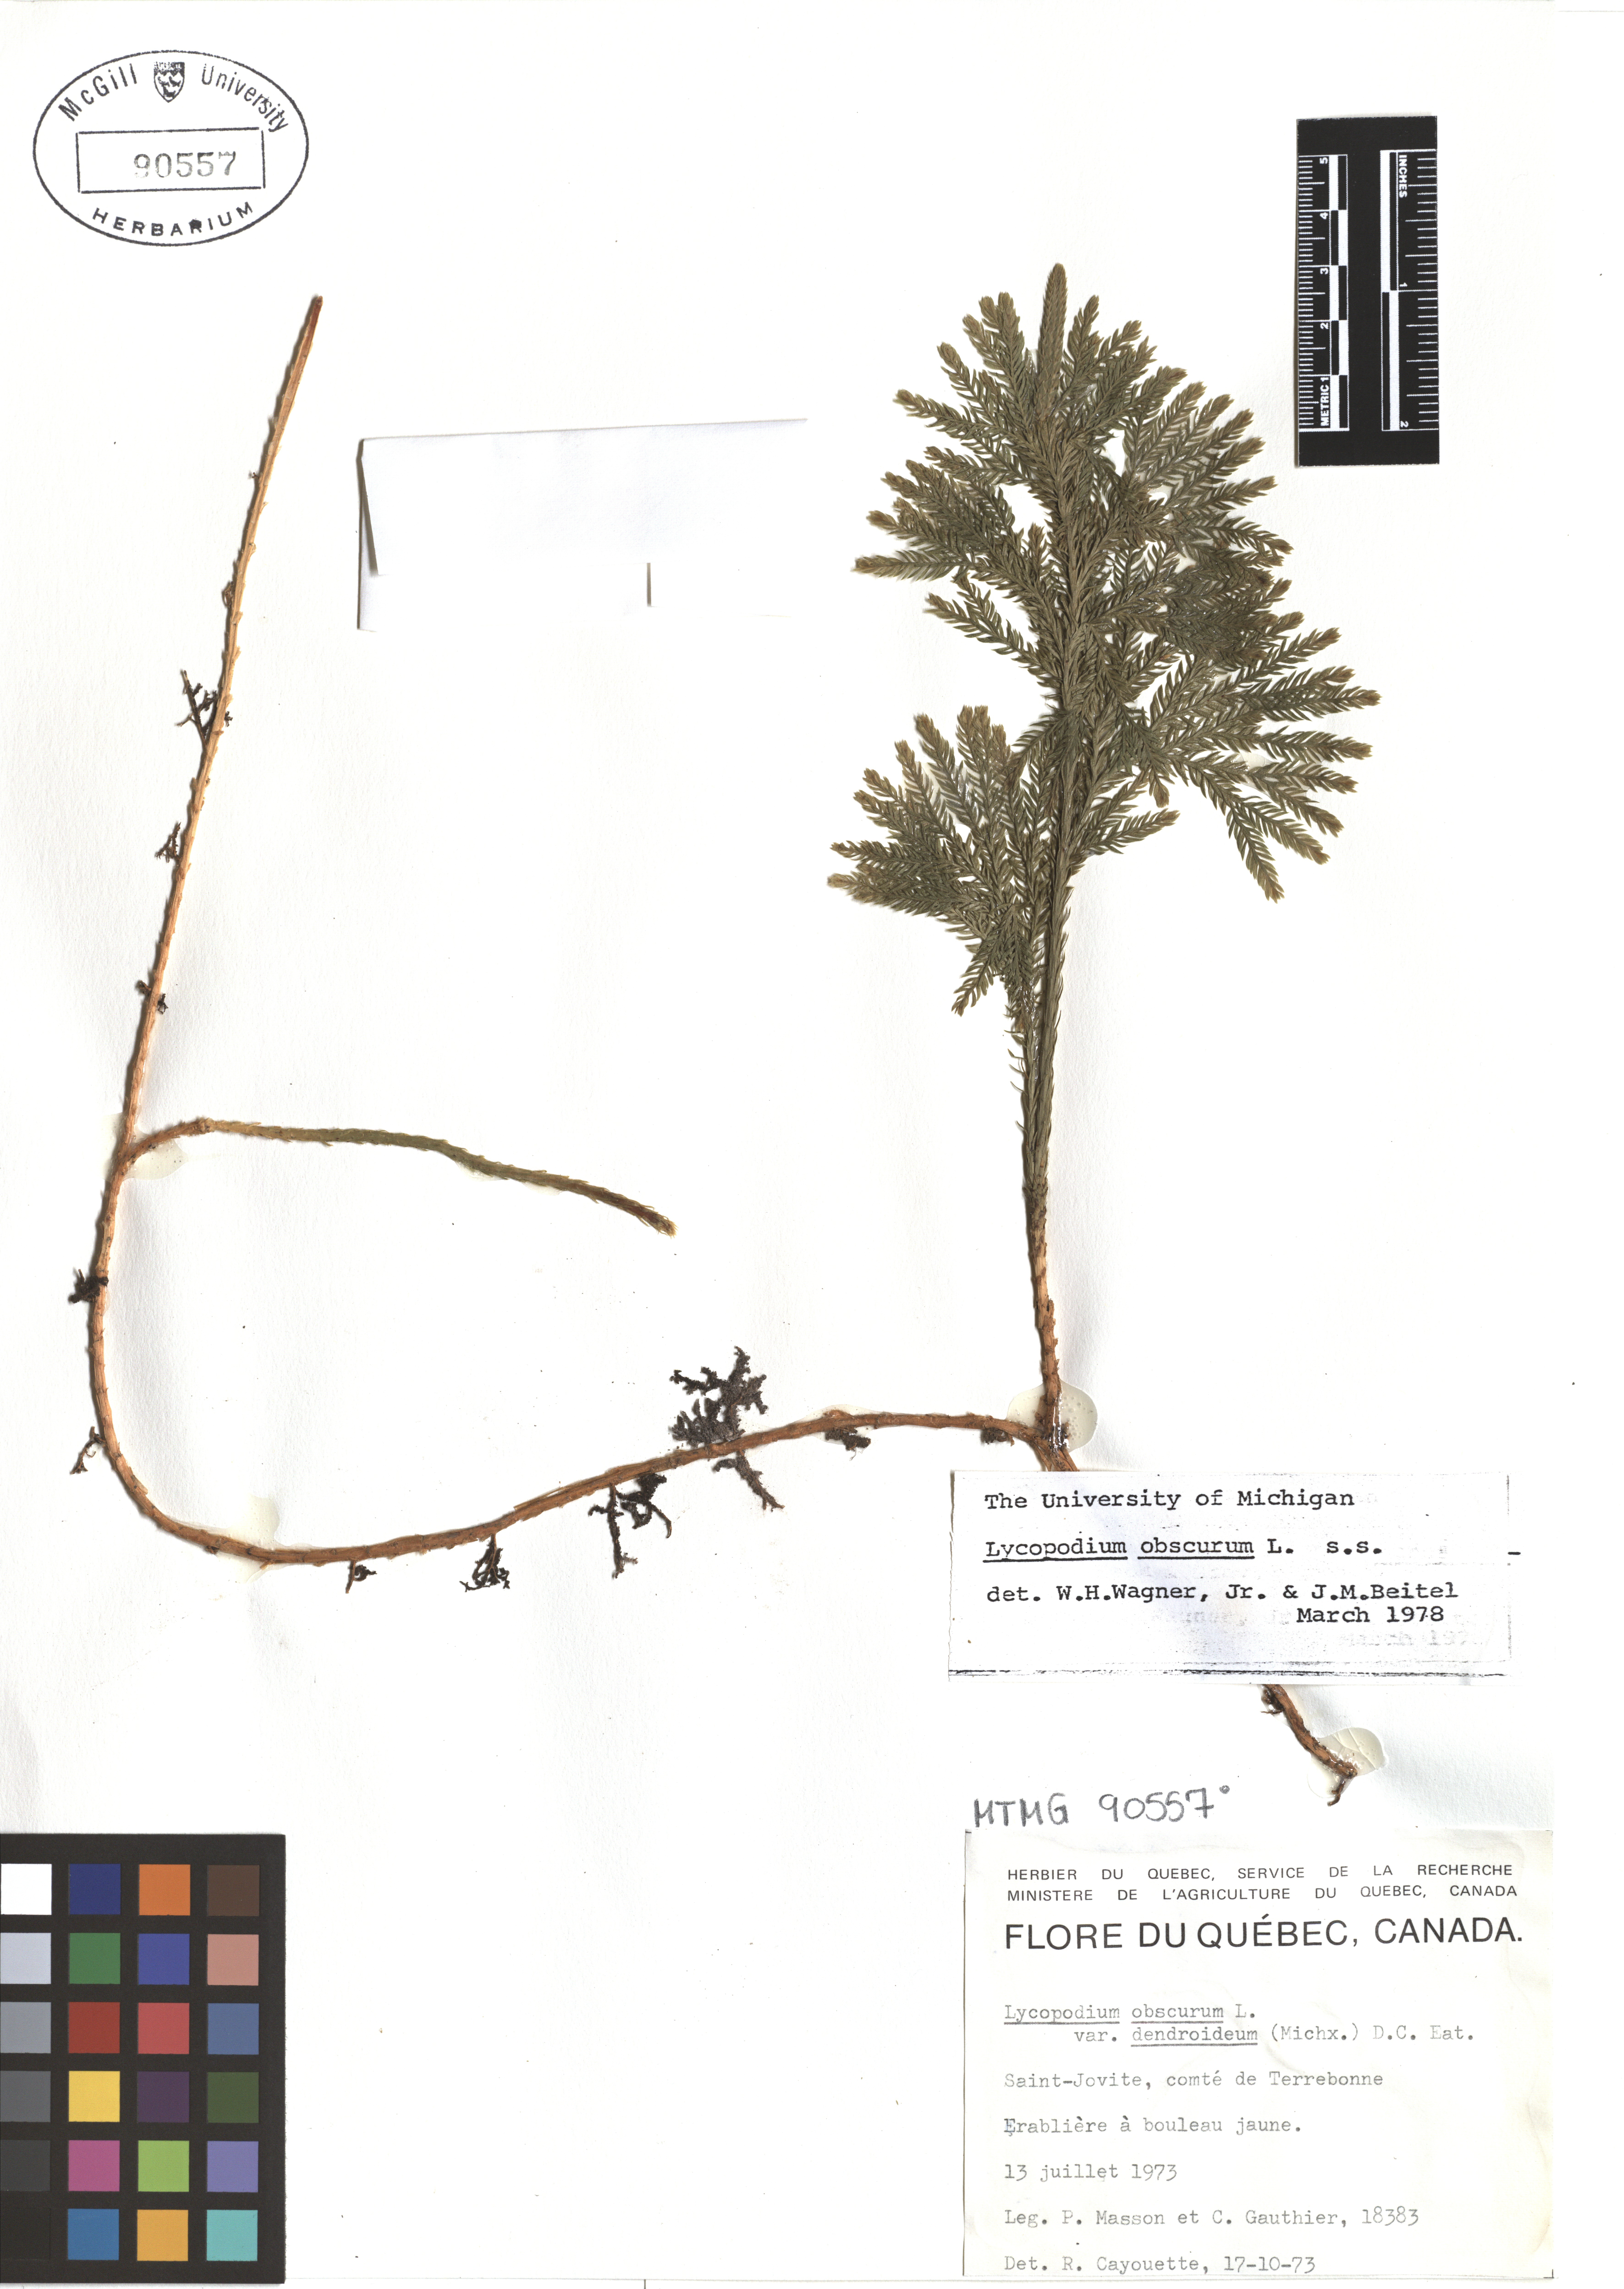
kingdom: Plantae
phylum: Tracheophyta
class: Lycopodiopsida
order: Lycopodiales
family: Lycopodiaceae
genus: Dendrolycopodium
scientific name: Dendrolycopodium obscurum
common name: Common ground-pine
